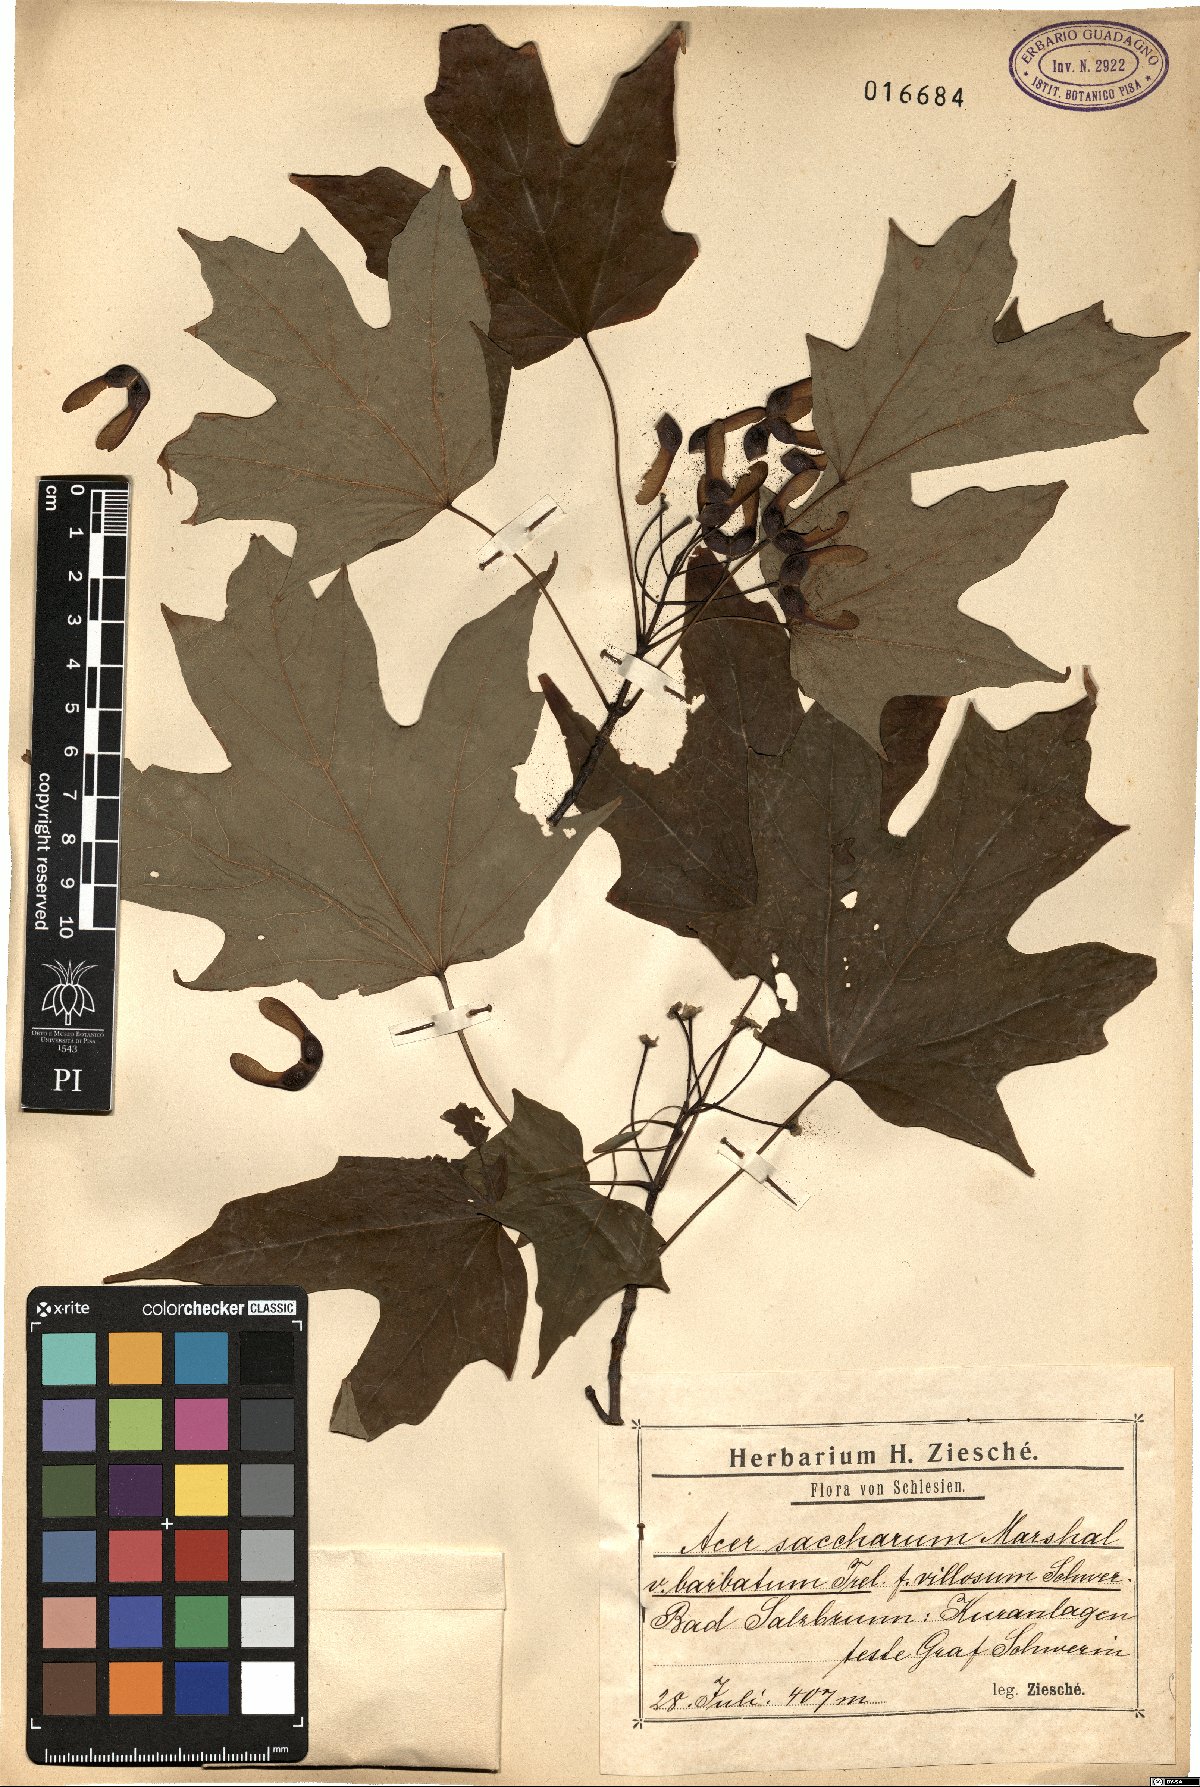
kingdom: Plantae
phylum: Tracheophyta
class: Magnoliopsida
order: Sapindales
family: Sapindaceae
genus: Acer
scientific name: Acer barbatum
